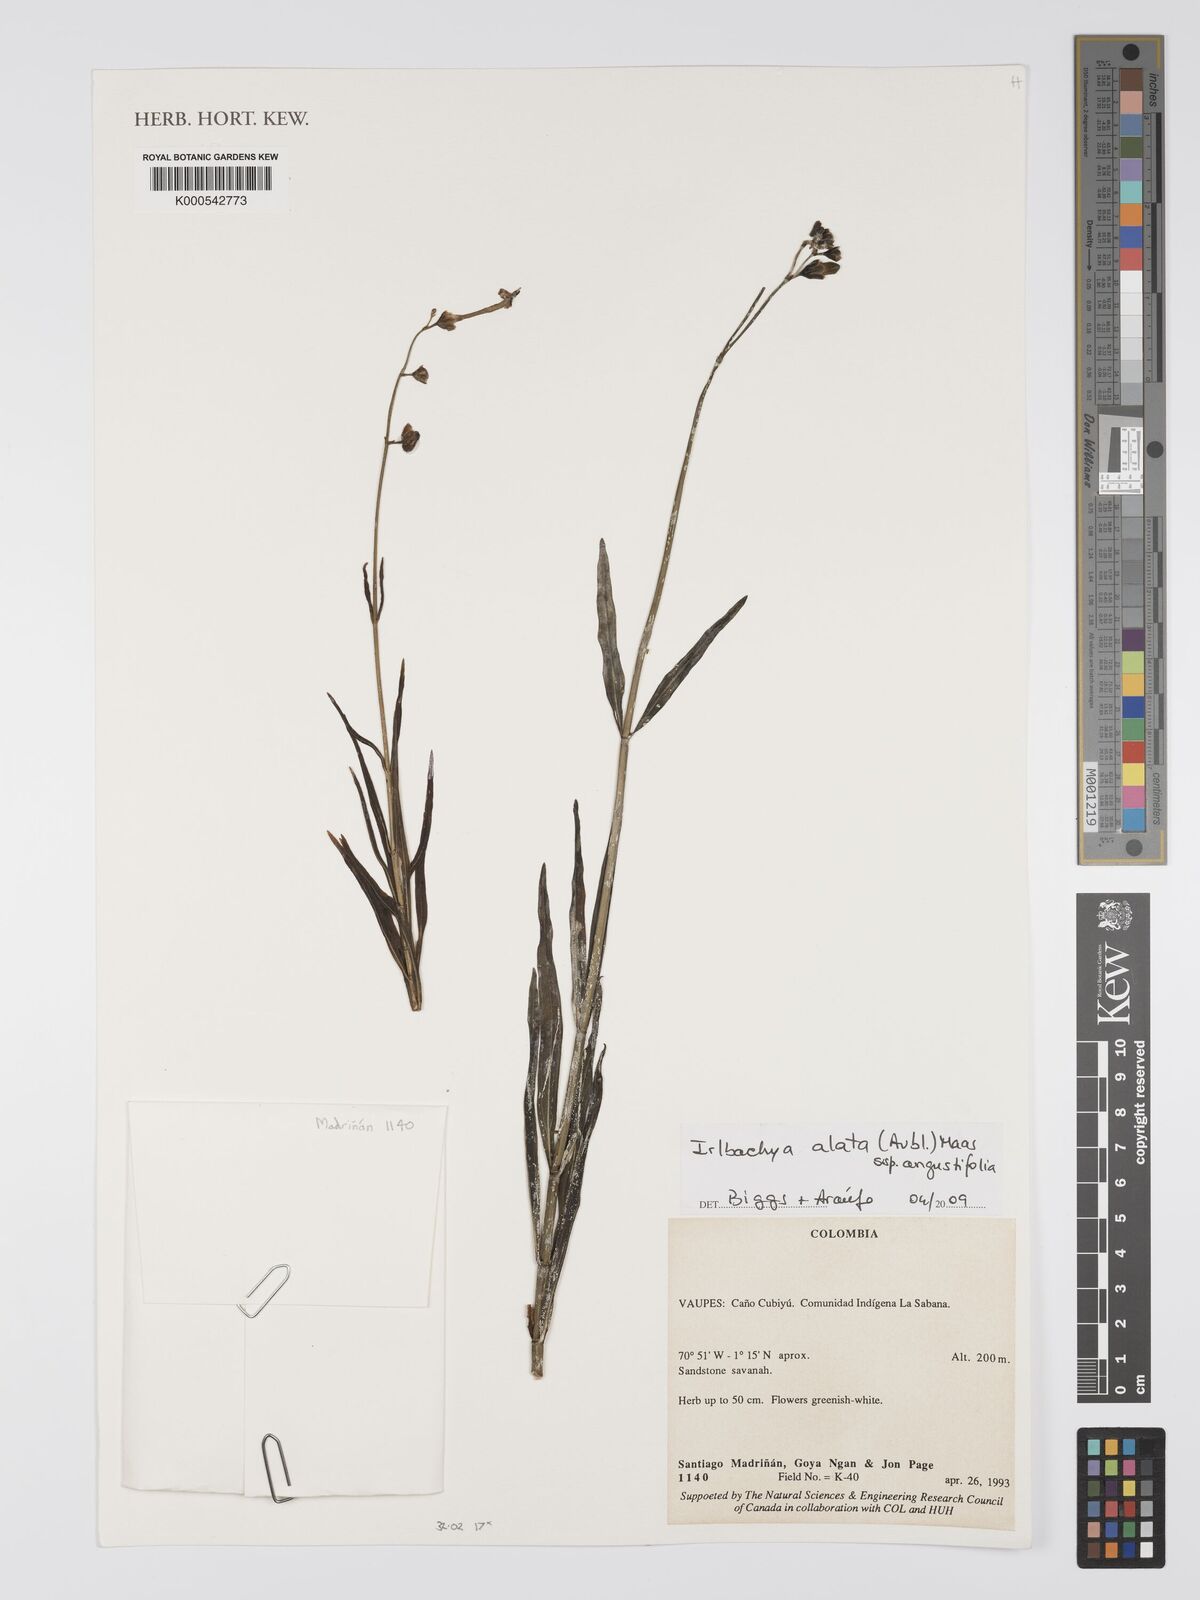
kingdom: Plantae
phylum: Tracheophyta
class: Magnoliopsida
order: Gentianales
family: Gentianaceae
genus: Chelonanthus
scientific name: Chelonanthus angustifolius
